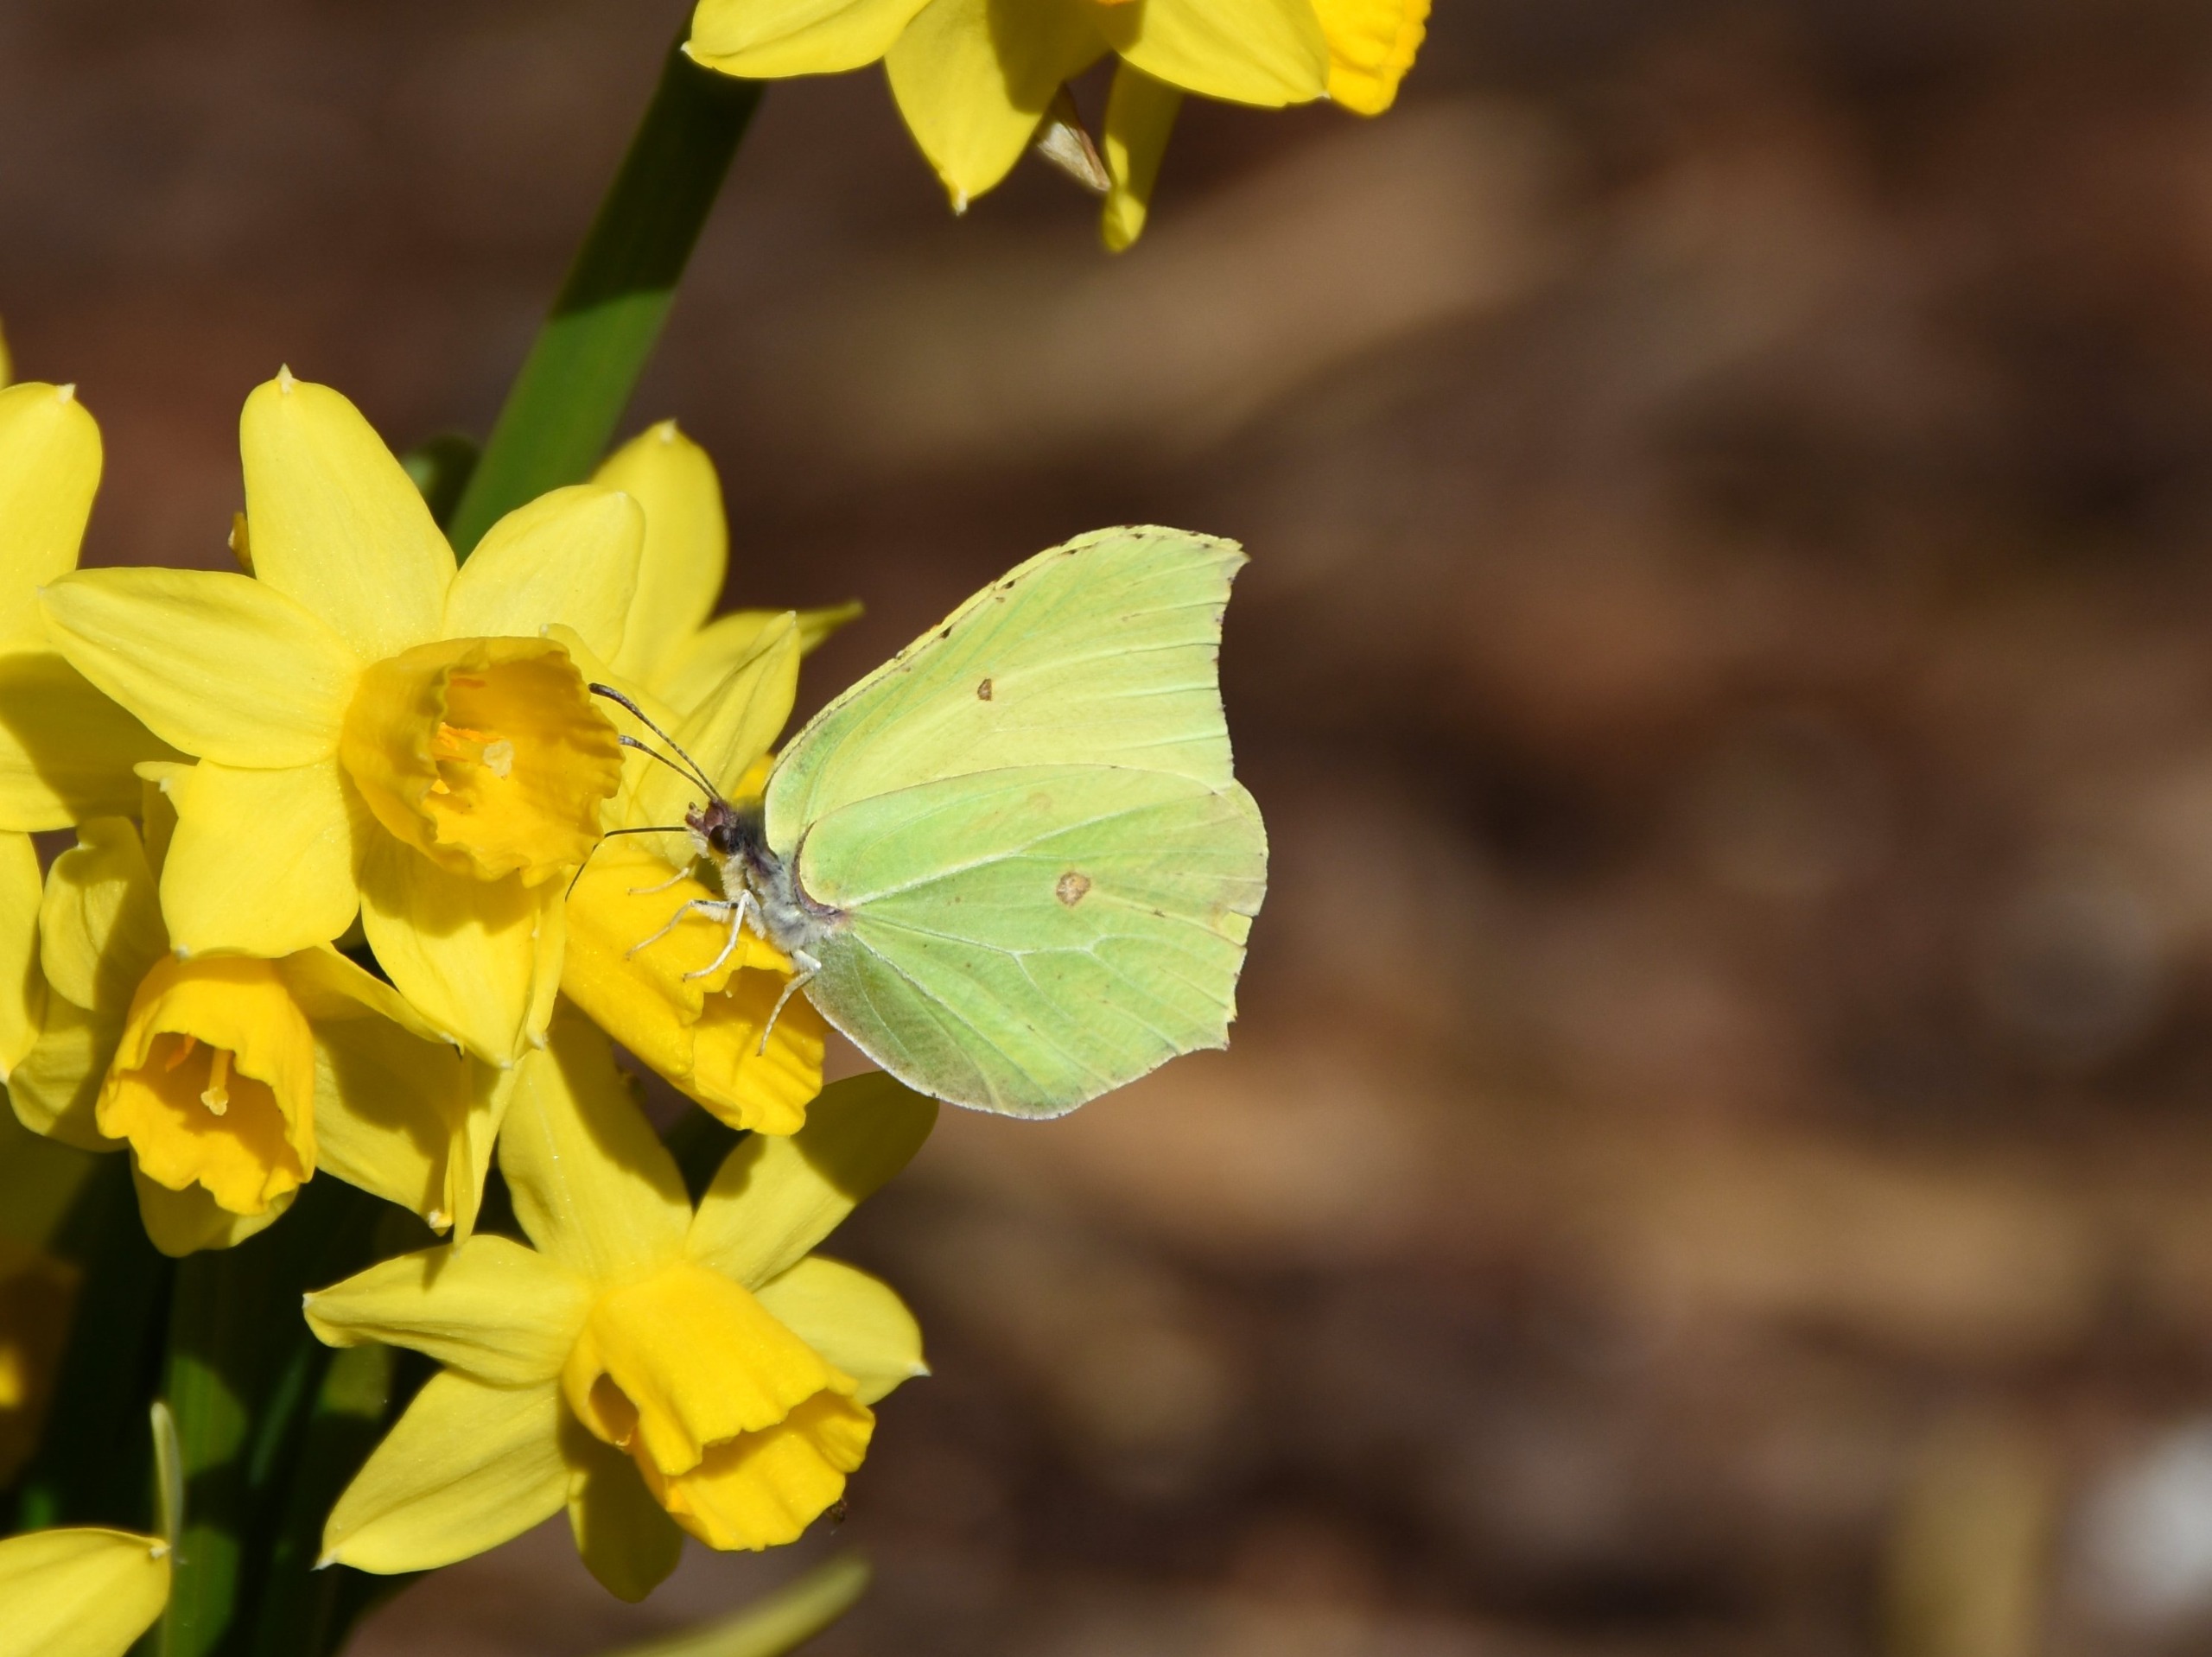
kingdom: Animalia
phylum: Arthropoda
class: Insecta
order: Lepidoptera
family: Pieridae
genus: Gonepteryx
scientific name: Gonepteryx rhamni
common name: Citronsommerfugl
